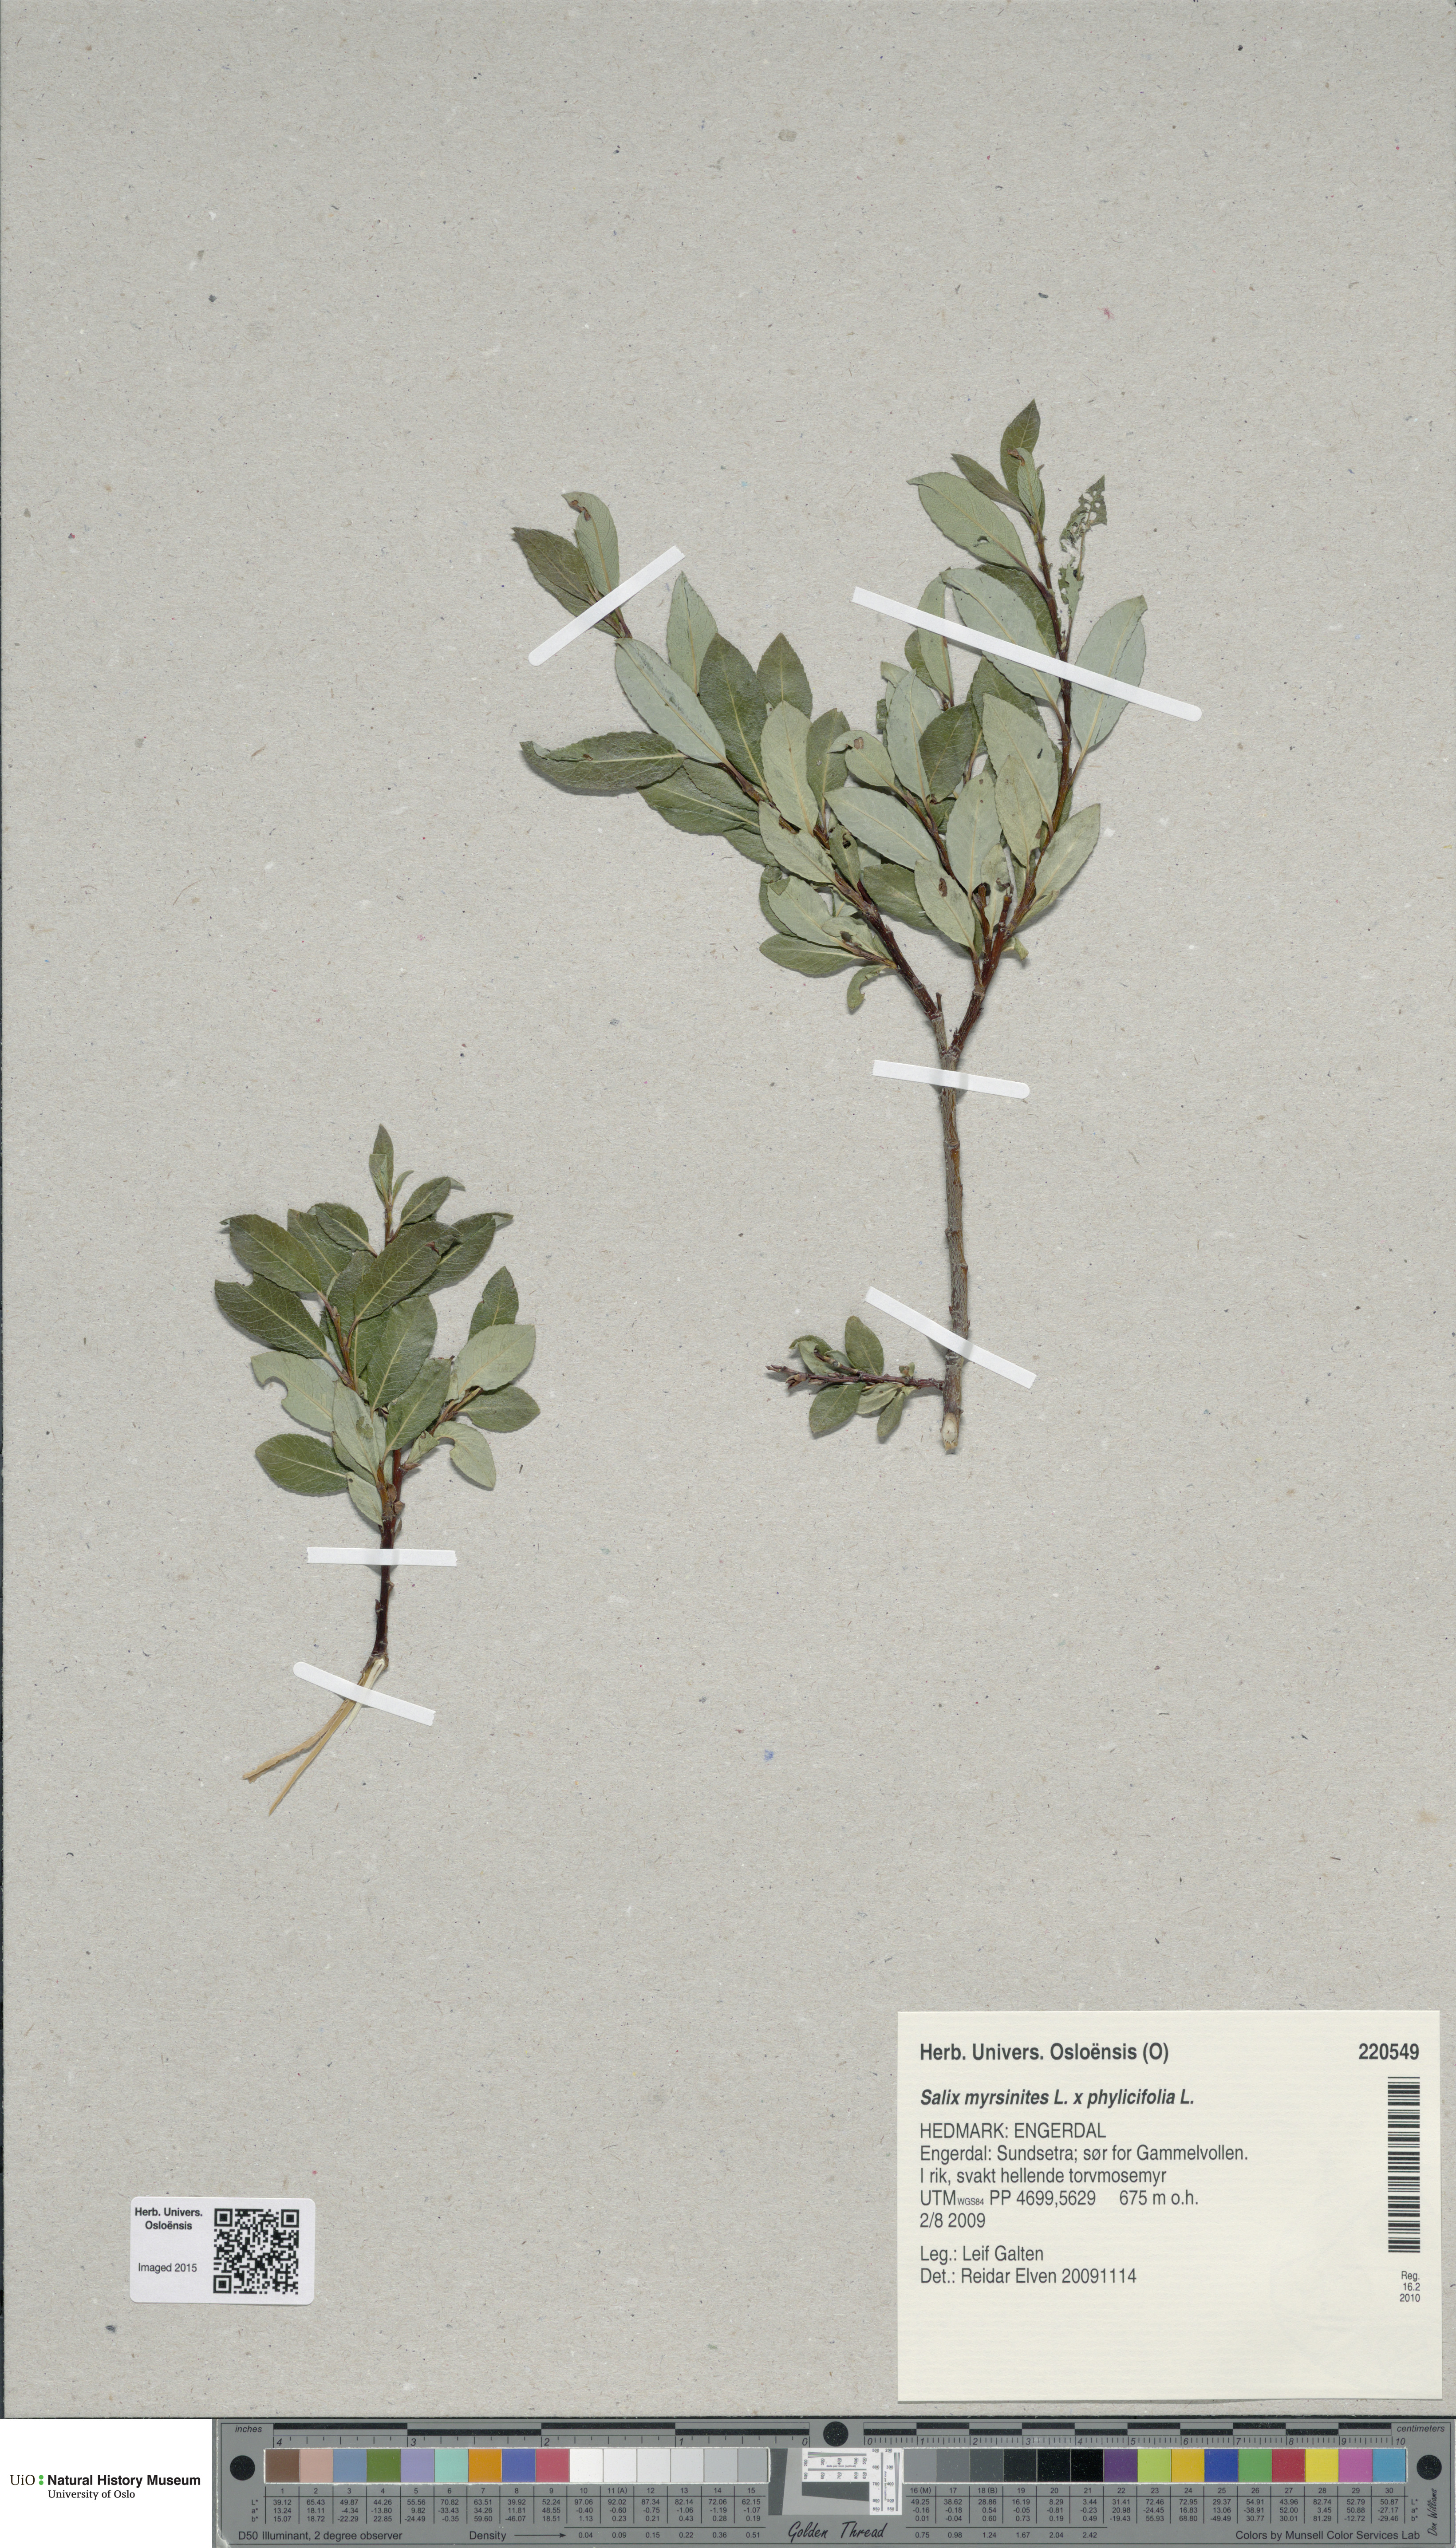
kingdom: Plantae
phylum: Tracheophyta
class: Magnoliopsida
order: Malpighiales
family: Salicaceae
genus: Salix
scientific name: Salix
